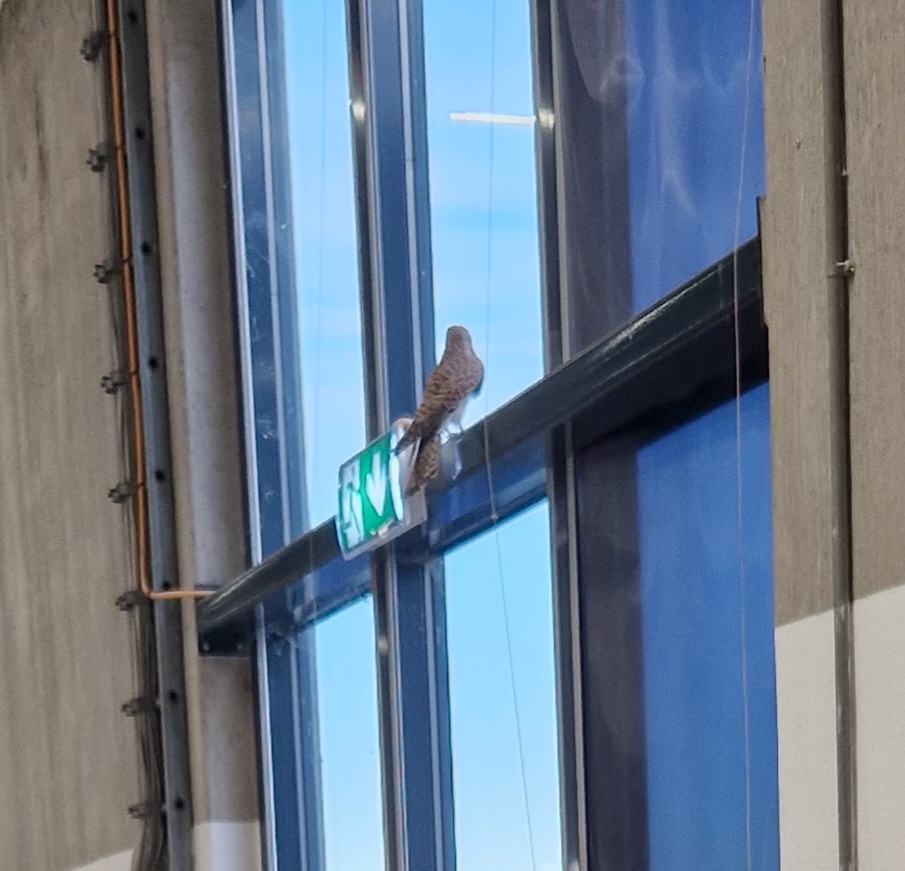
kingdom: Animalia
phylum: Chordata
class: Aves
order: Falconiformes
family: Falconidae
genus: Falco
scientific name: Falco tinnunculus
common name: Tårnfalk
